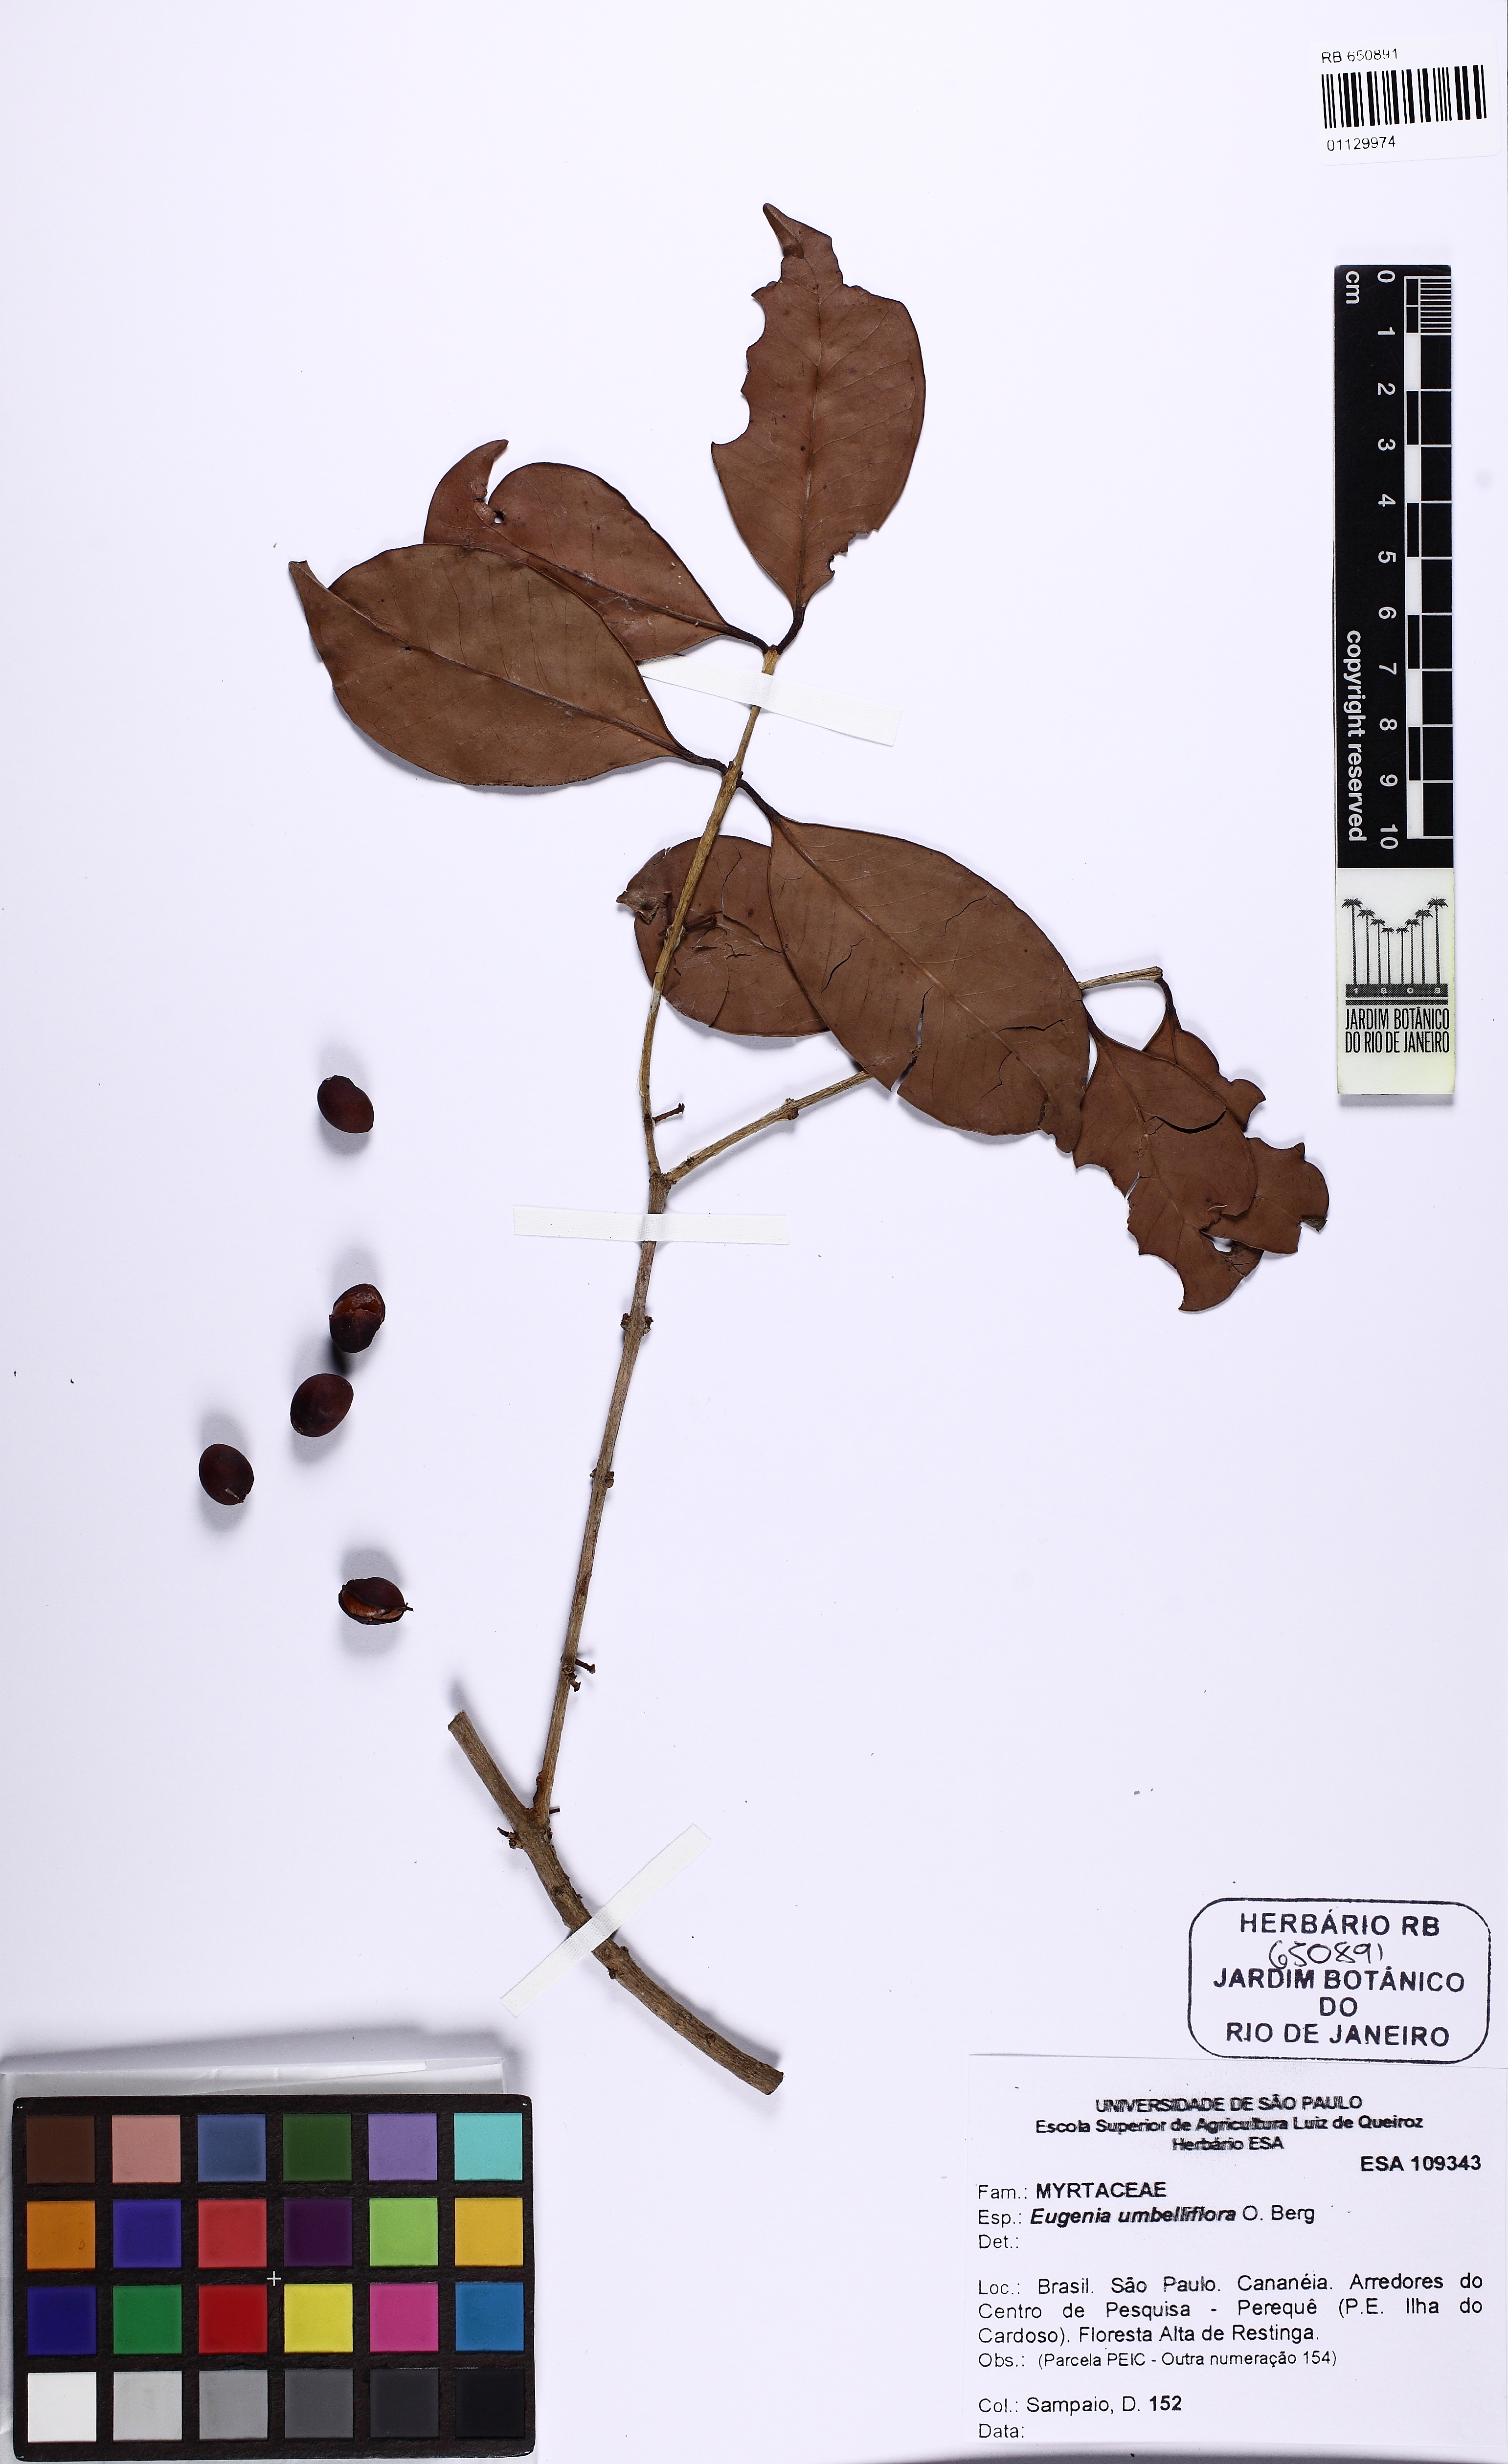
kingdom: Plantae
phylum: Tracheophyta
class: Magnoliopsida
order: Myrtales
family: Myrtaceae
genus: Eugenia
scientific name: Eugenia umbelliflora
